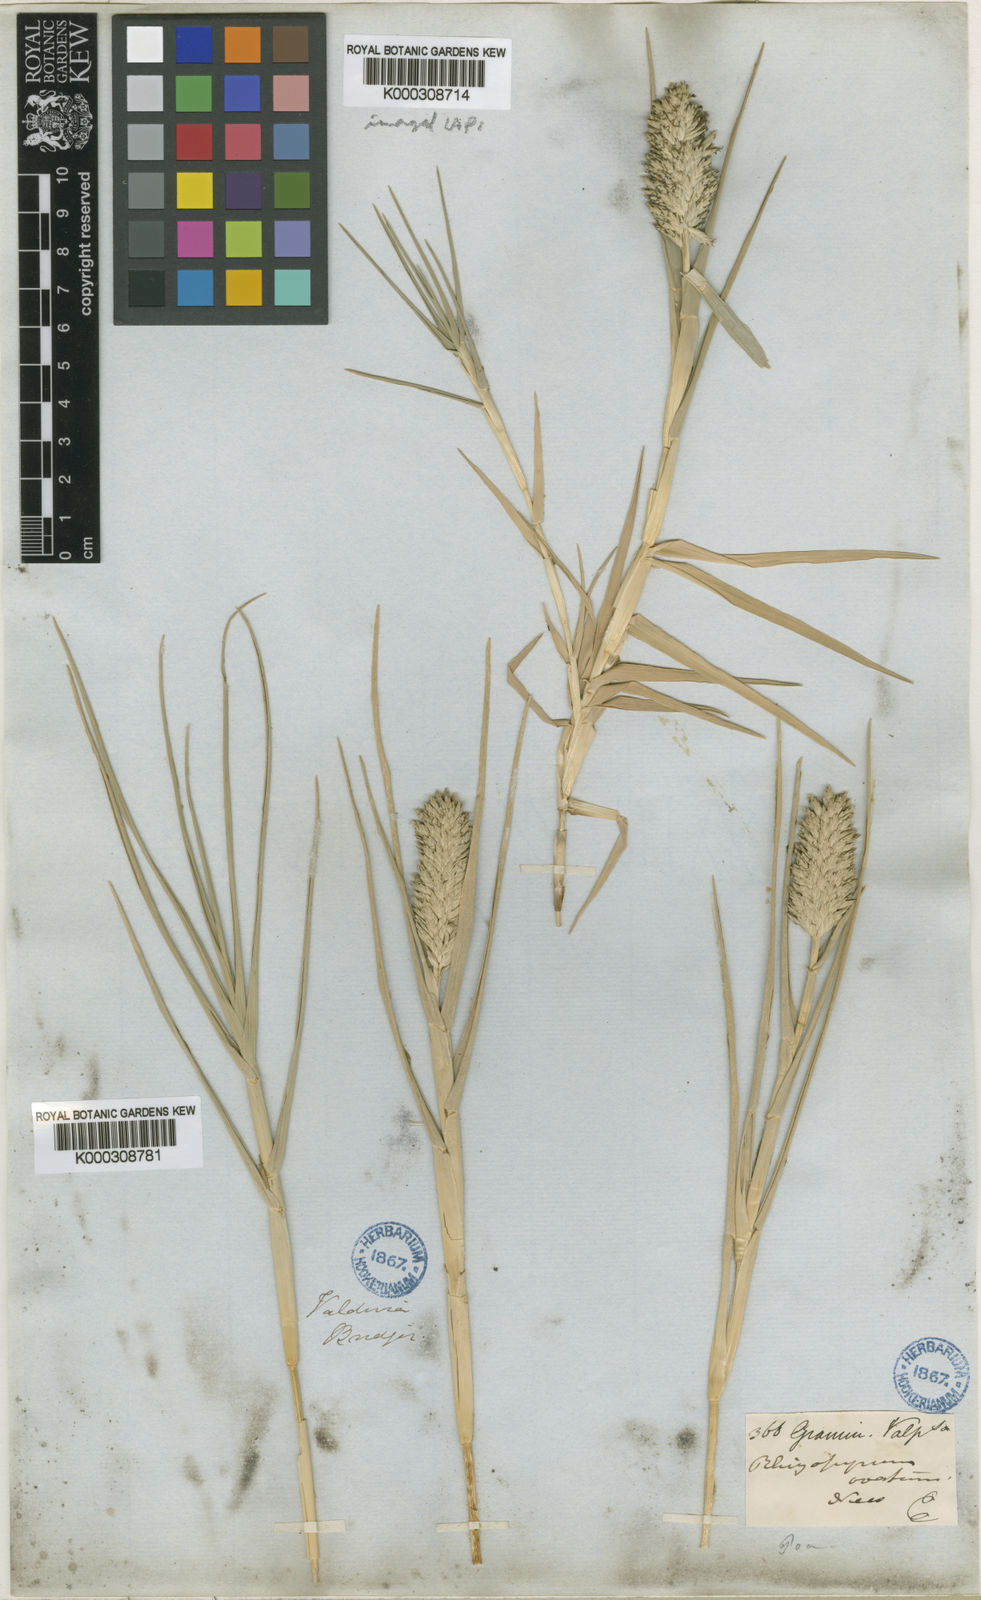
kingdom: Plantae
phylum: Tracheophyta
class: Liliopsida
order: Poales
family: Poaceae
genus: Distichlis
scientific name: Distichlis spicata
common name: Saltgrass
